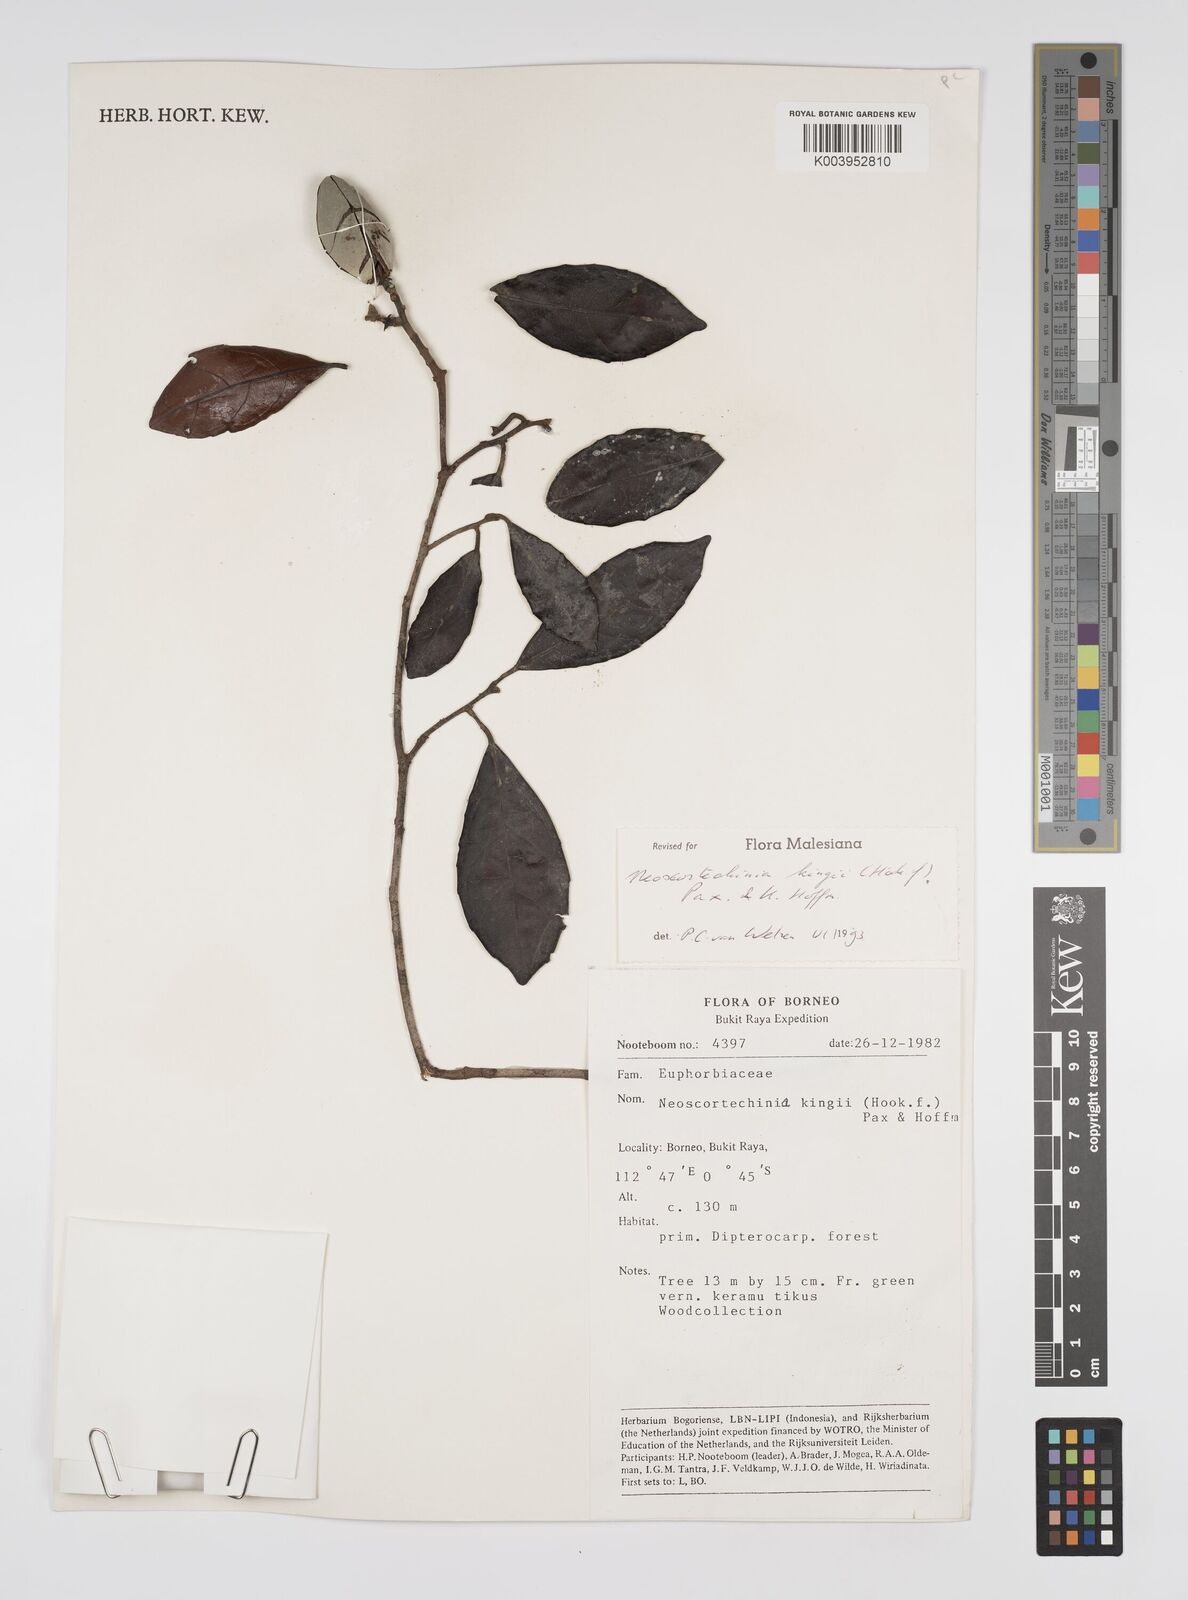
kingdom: Plantae
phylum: Tracheophyta
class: Magnoliopsida
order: Malpighiales
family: Euphorbiaceae
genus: Neoscortechinia
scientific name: Neoscortechinia kingii
